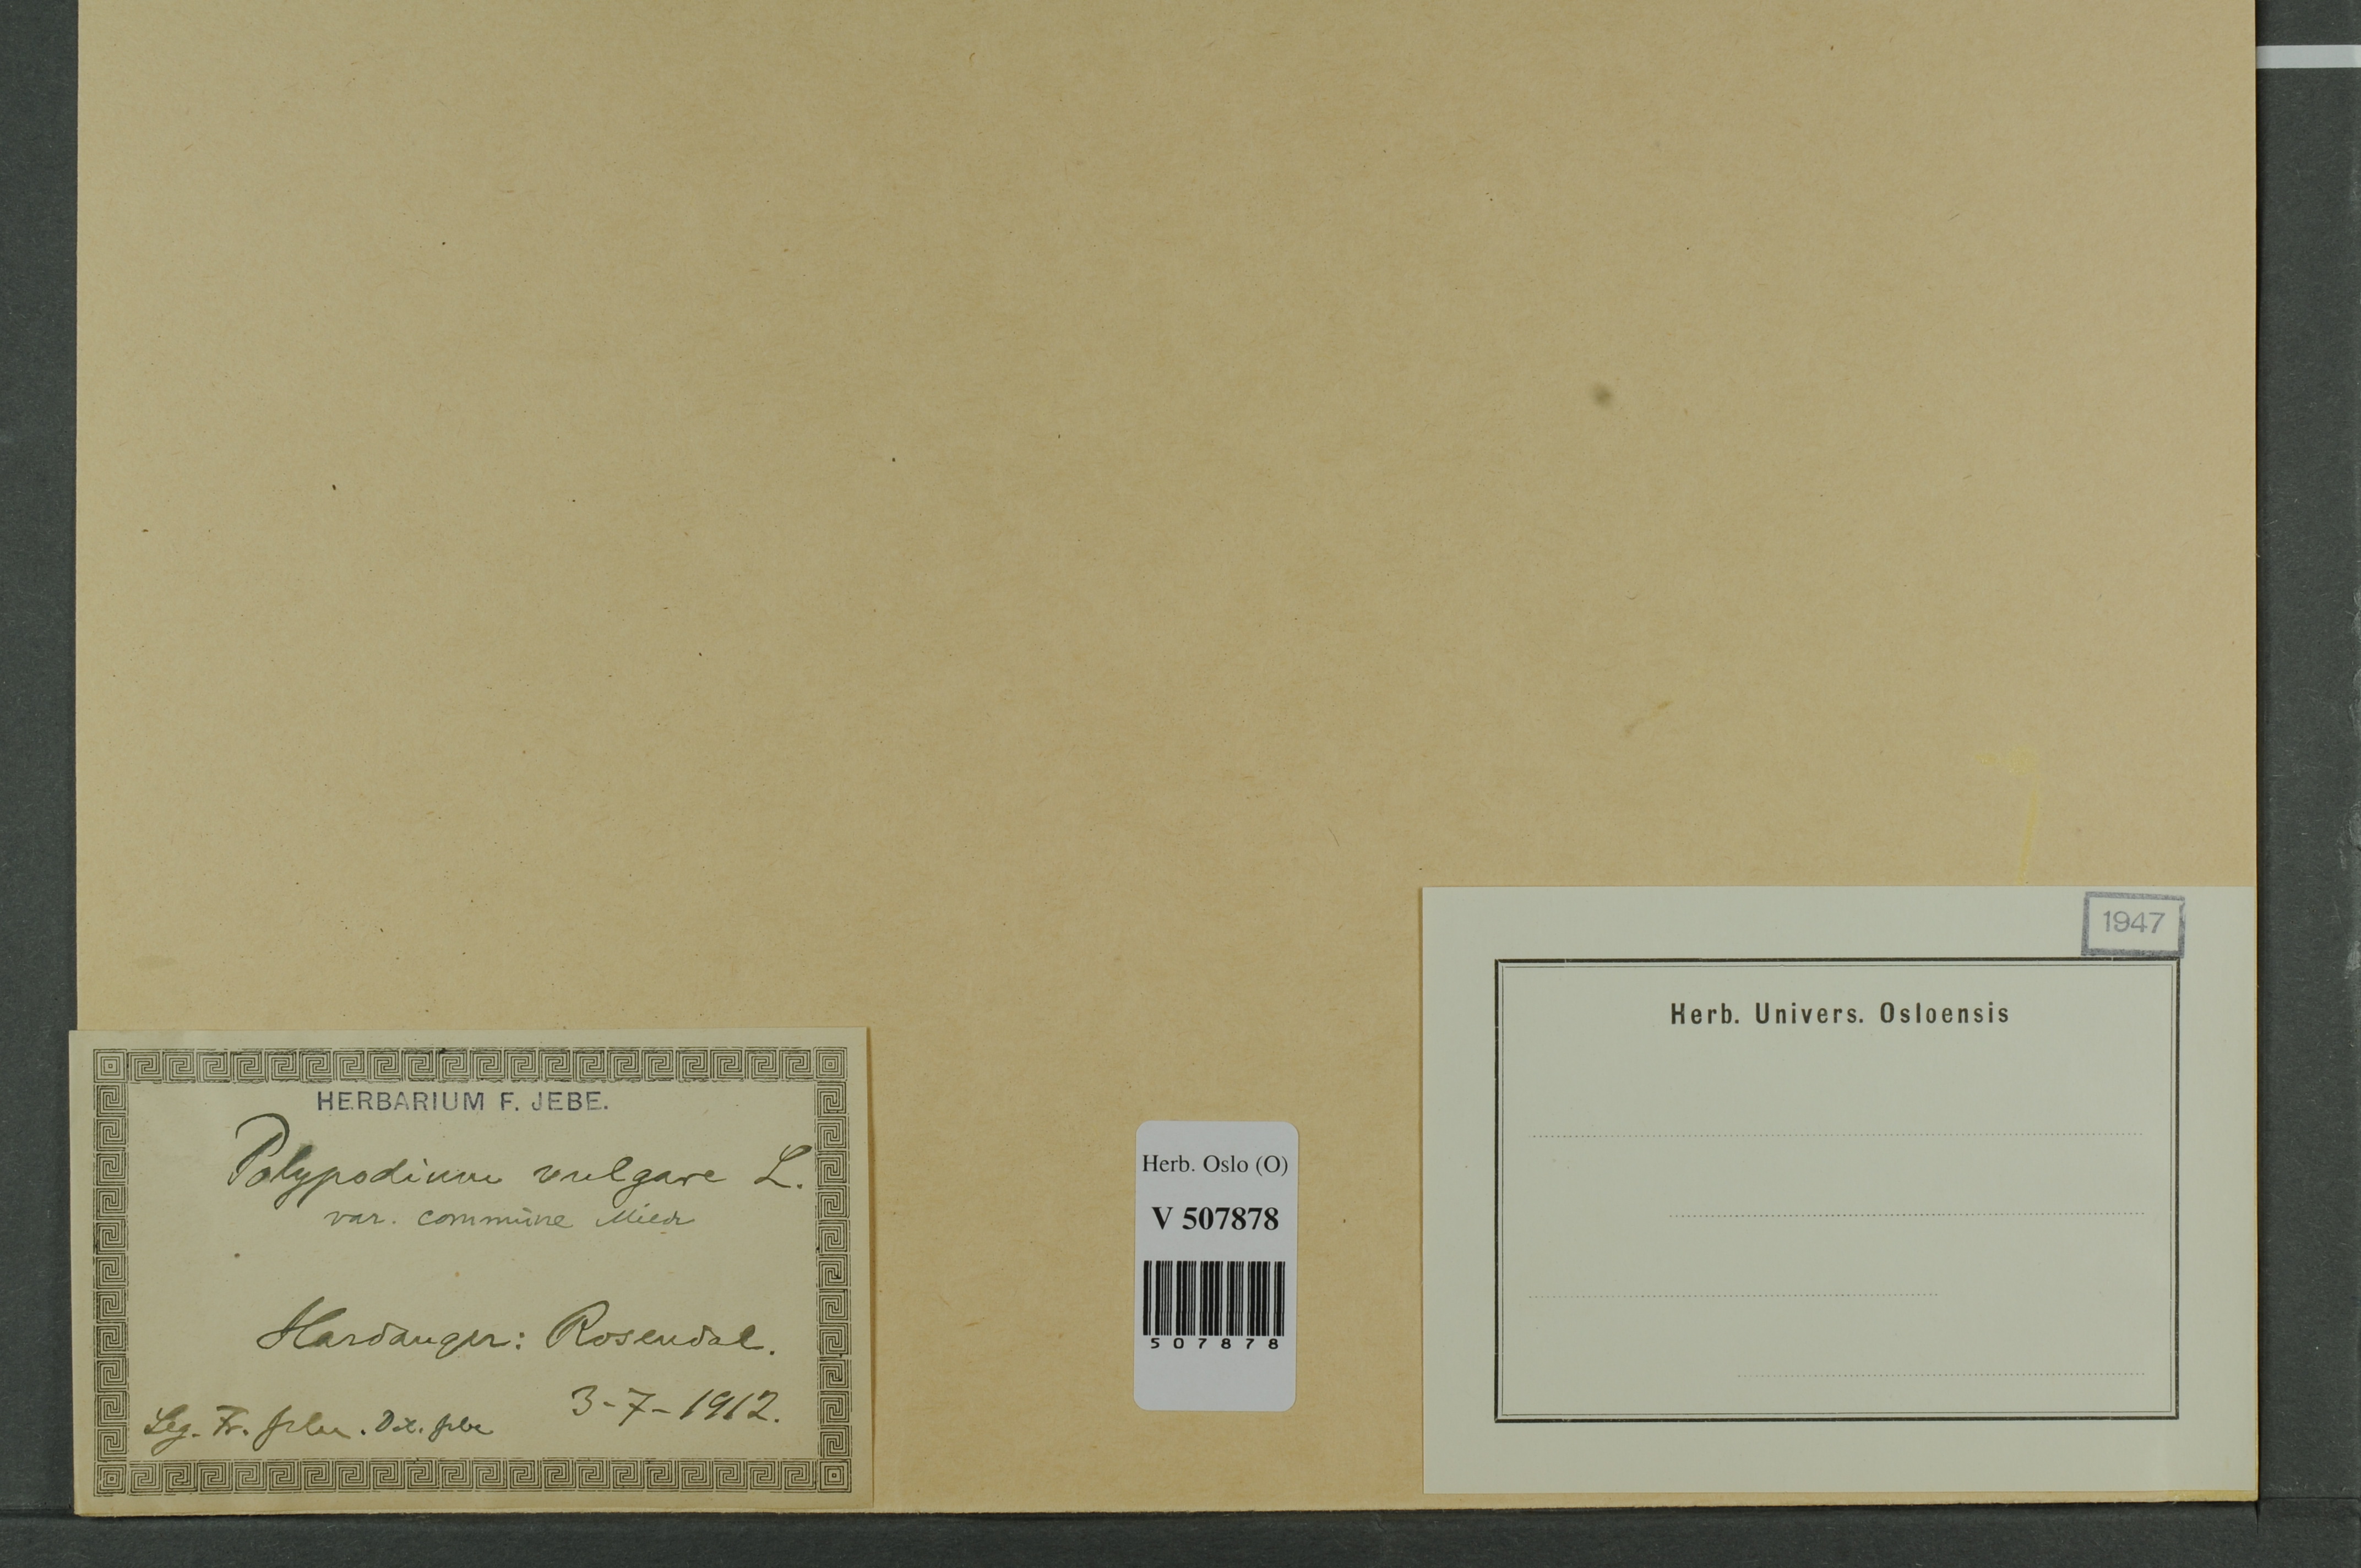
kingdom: Plantae
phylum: Tracheophyta
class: Polypodiopsida
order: Polypodiales
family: Polypodiaceae
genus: Polypodium
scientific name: Polypodium vulgare
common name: Common polypody
